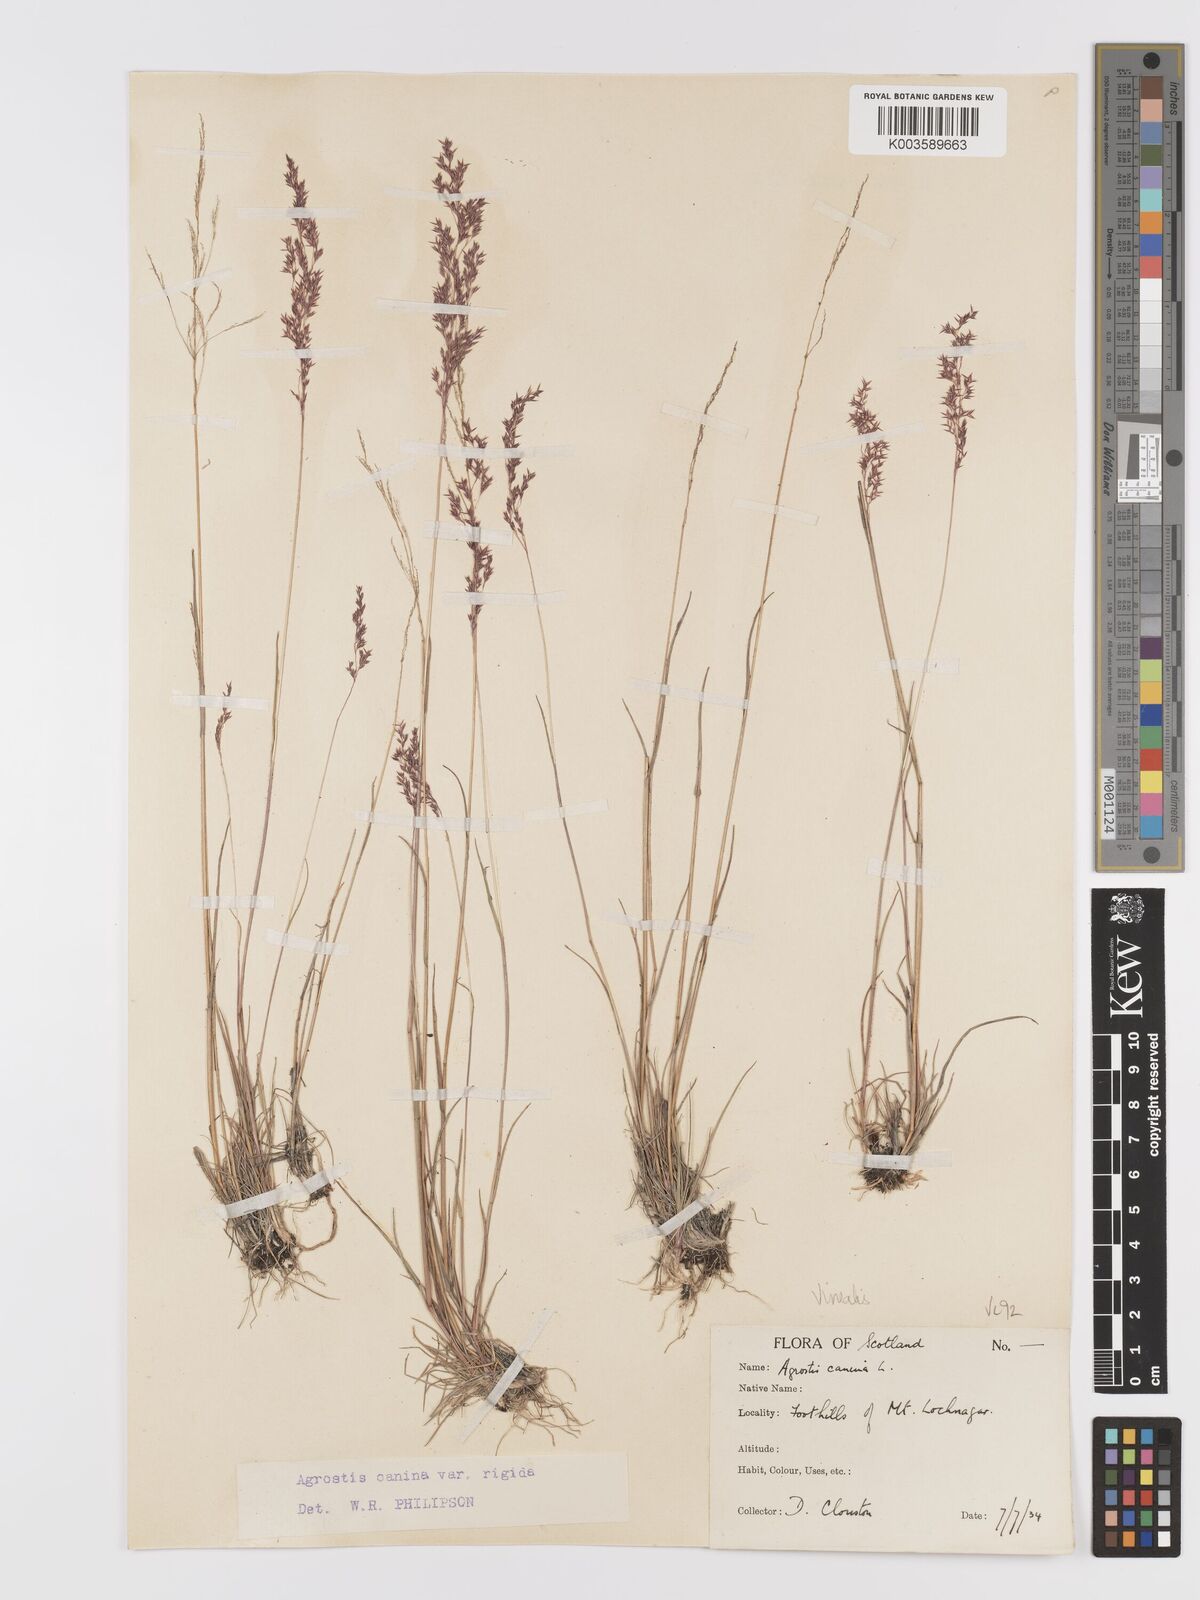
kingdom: Plantae
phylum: Tracheophyta
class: Liliopsida
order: Poales
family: Poaceae
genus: Agrostis
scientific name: Agrostis
